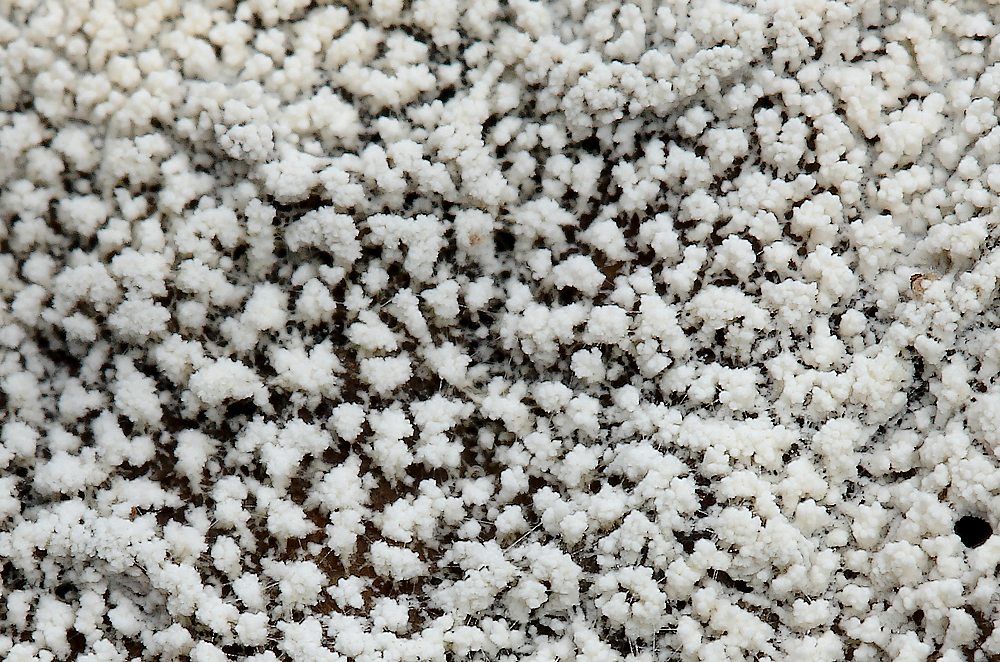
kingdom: Fungi
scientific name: Fungi
